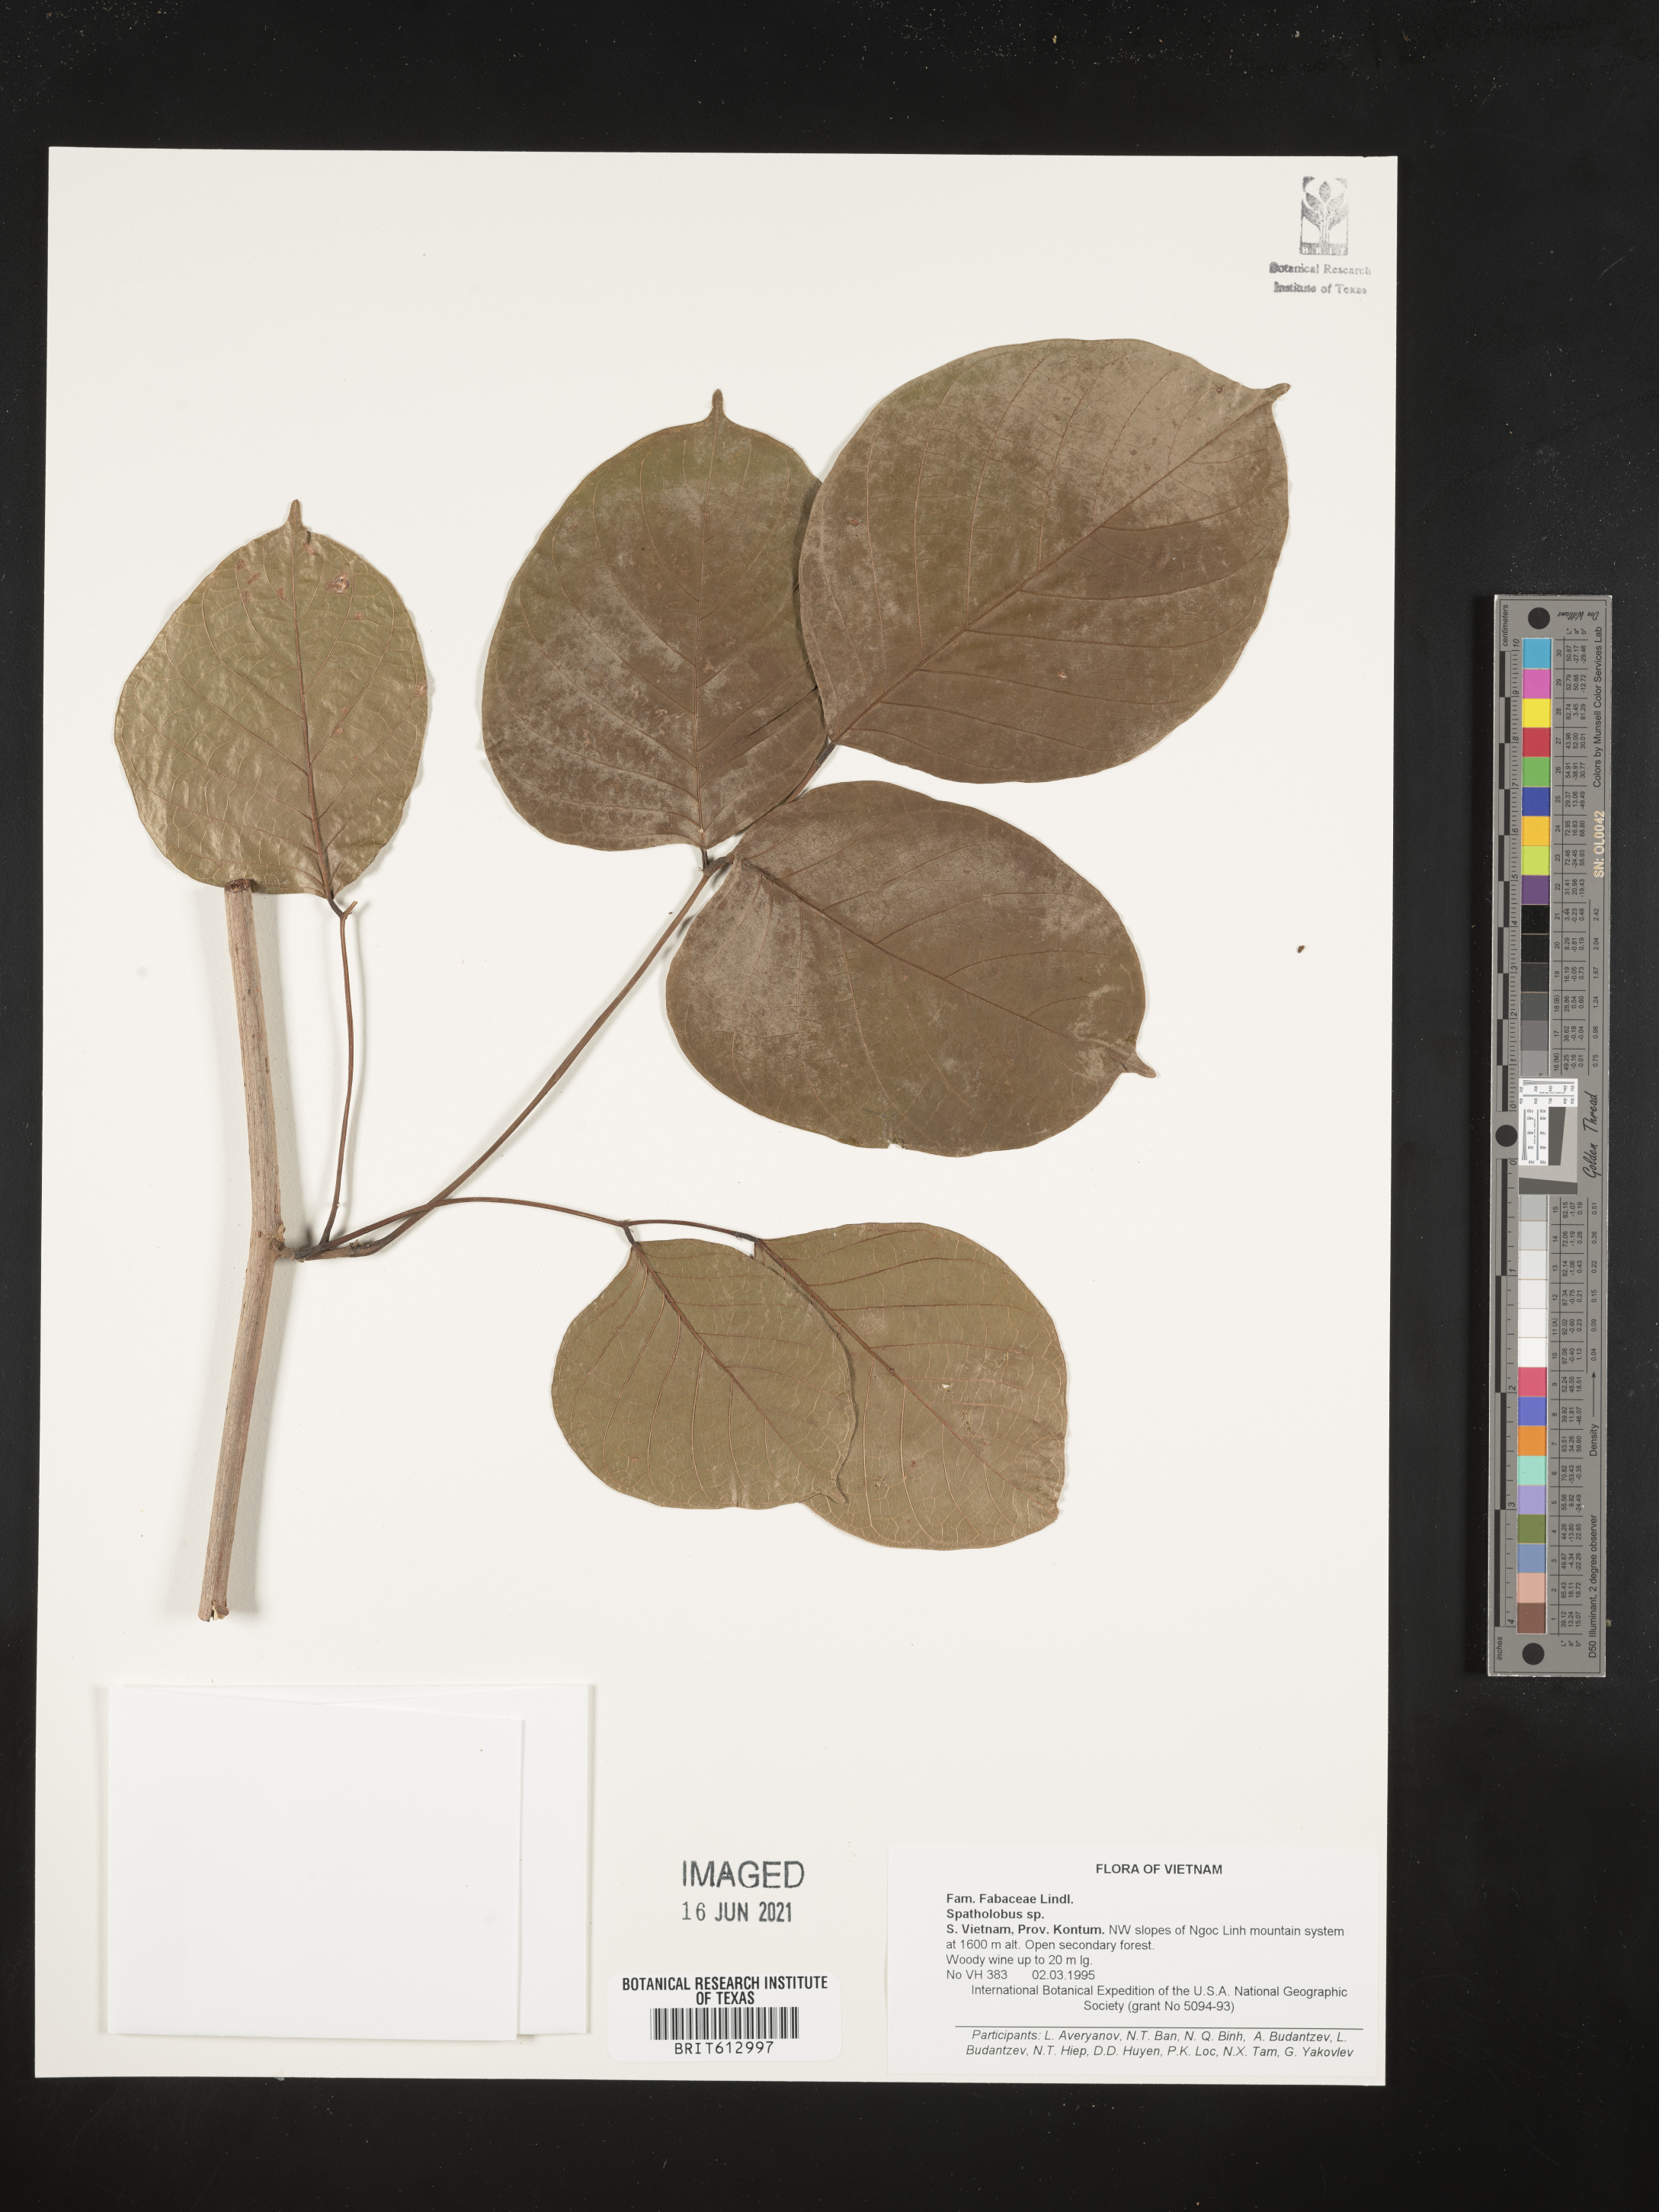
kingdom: Plantae
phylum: Tracheophyta
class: Magnoliopsida
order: Fabales
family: Fabaceae
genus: Spatholobus
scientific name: Spatholobus
